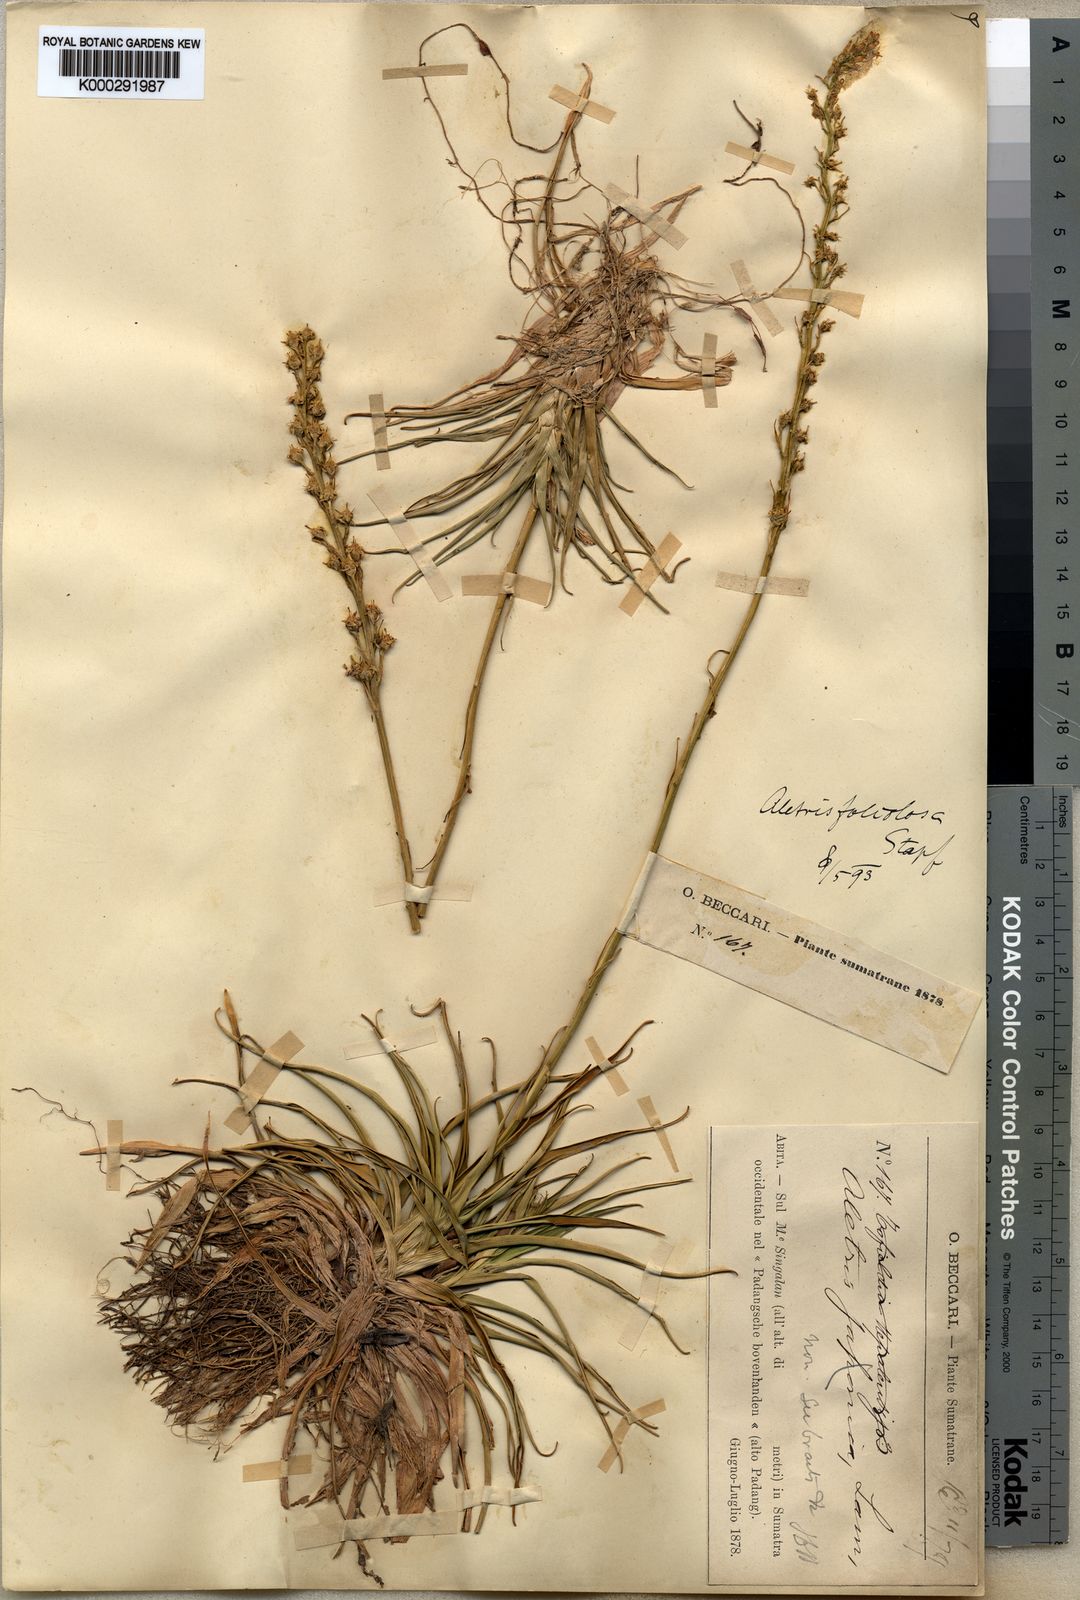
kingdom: Plantae
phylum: Tracheophyta
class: Liliopsida
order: Dioscoreales
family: Nartheciaceae
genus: Aletris
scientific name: Aletris foliolosa
